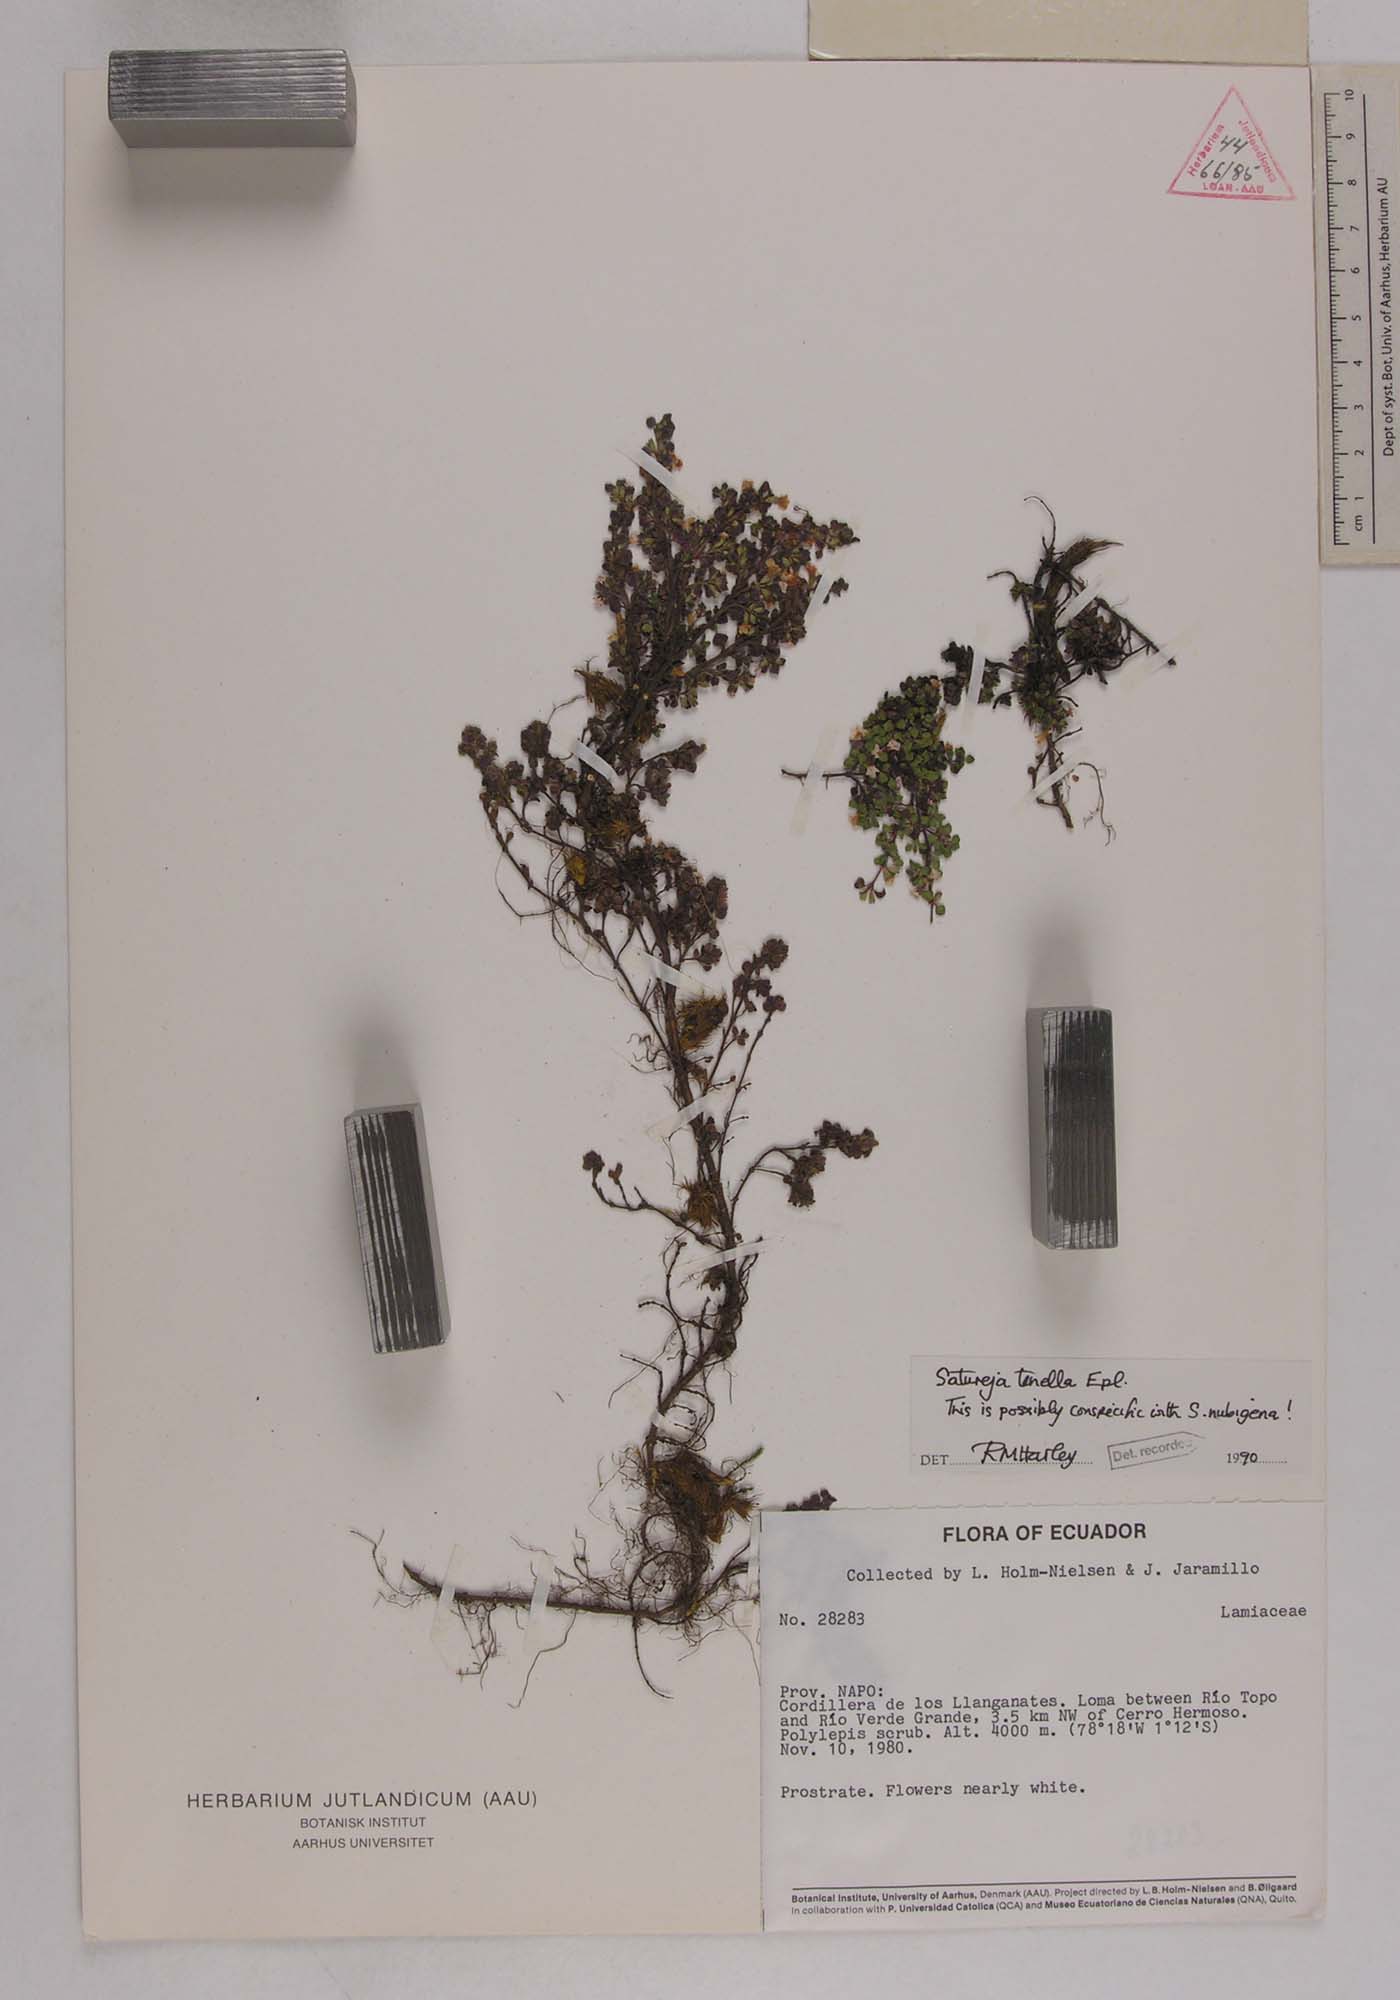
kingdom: Plantae
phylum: Tracheophyta
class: Magnoliopsida
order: Lamiales
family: Lamiaceae
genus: Clinopodium
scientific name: Clinopodium tenellum
